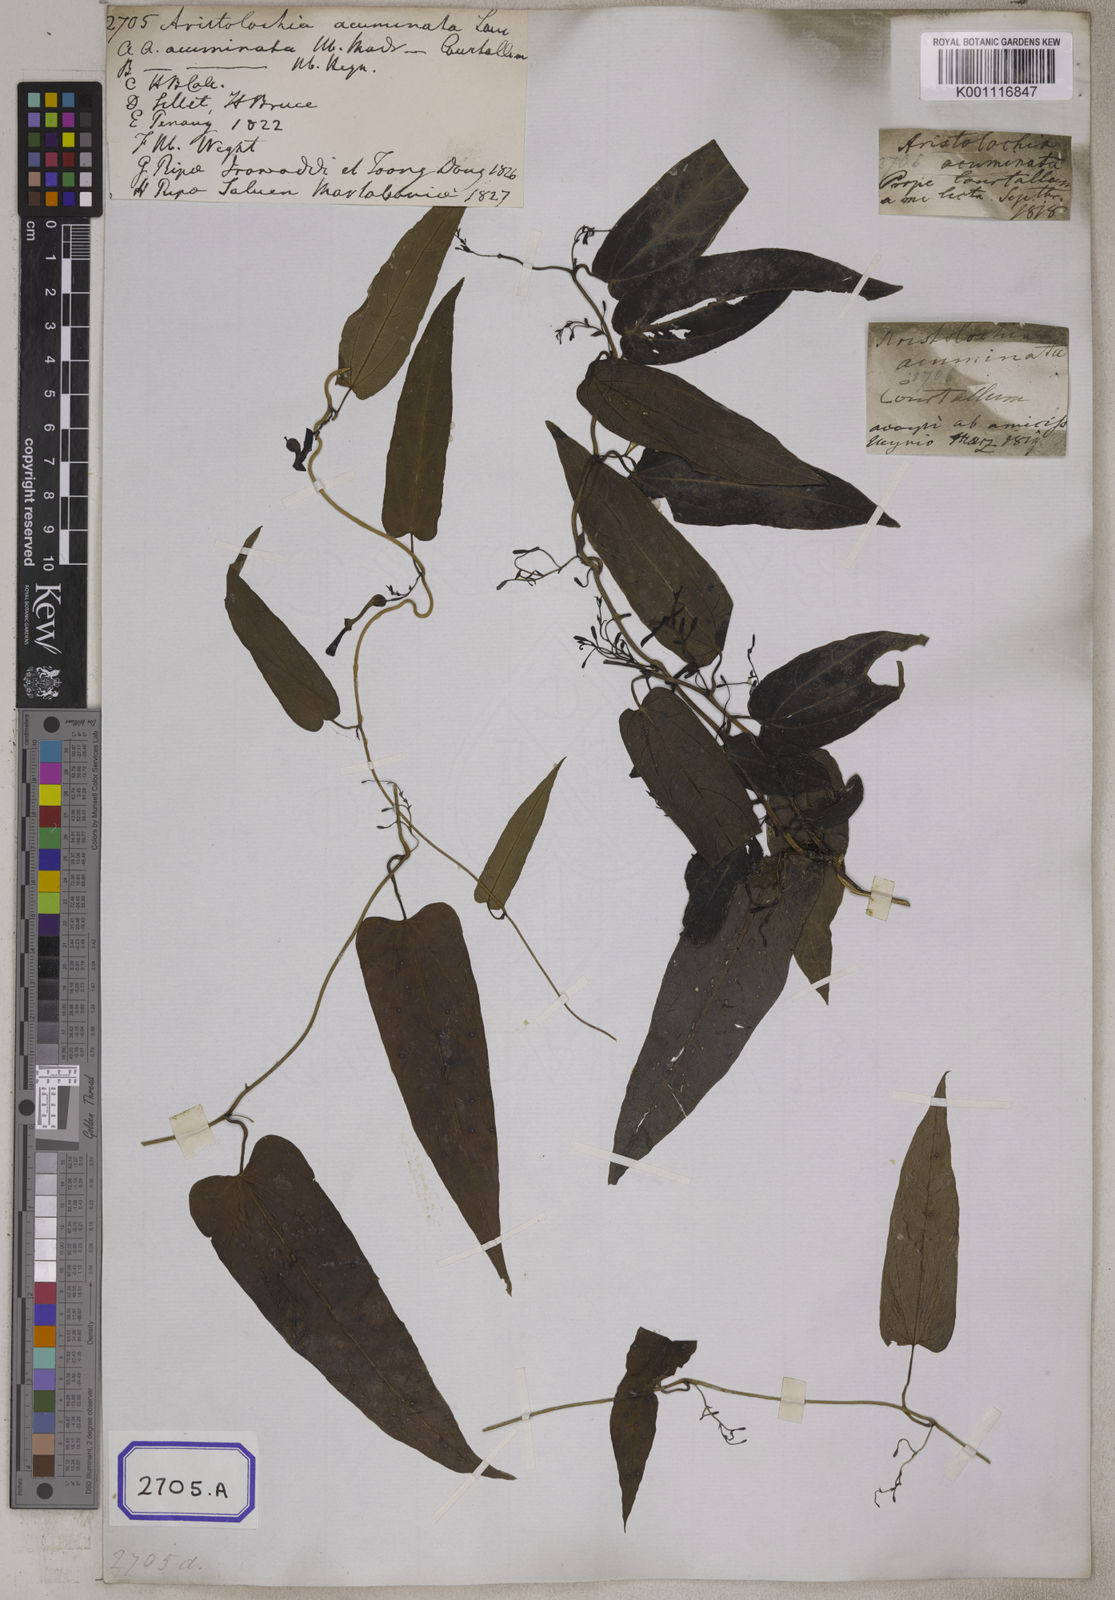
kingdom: Plantae
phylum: Tracheophyta
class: Magnoliopsida
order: Piperales
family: Aristolochiaceae
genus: Aristolochia
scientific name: Aristolochia acuminata
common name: Indian birthwort
